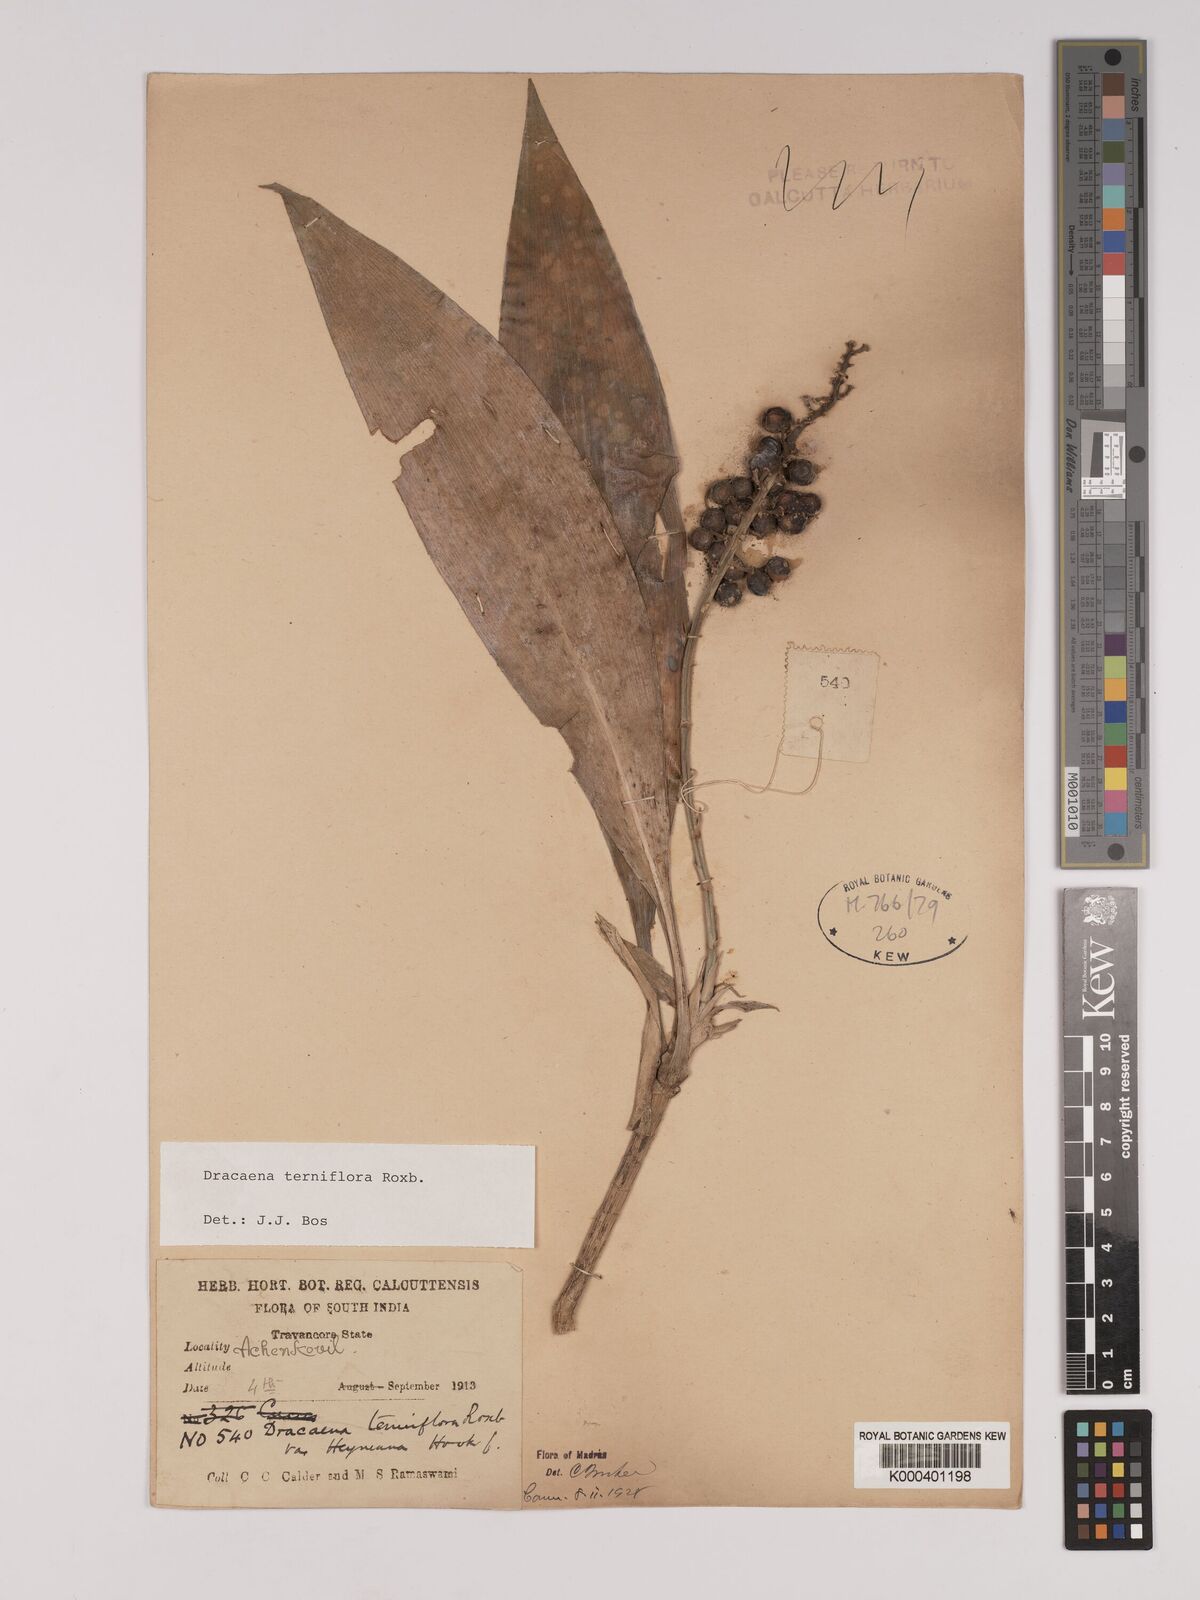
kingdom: Plantae
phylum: Tracheophyta
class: Liliopsida
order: Asparagales
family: Asparagaceae
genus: Dracaena
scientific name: Dracaena terniflora
